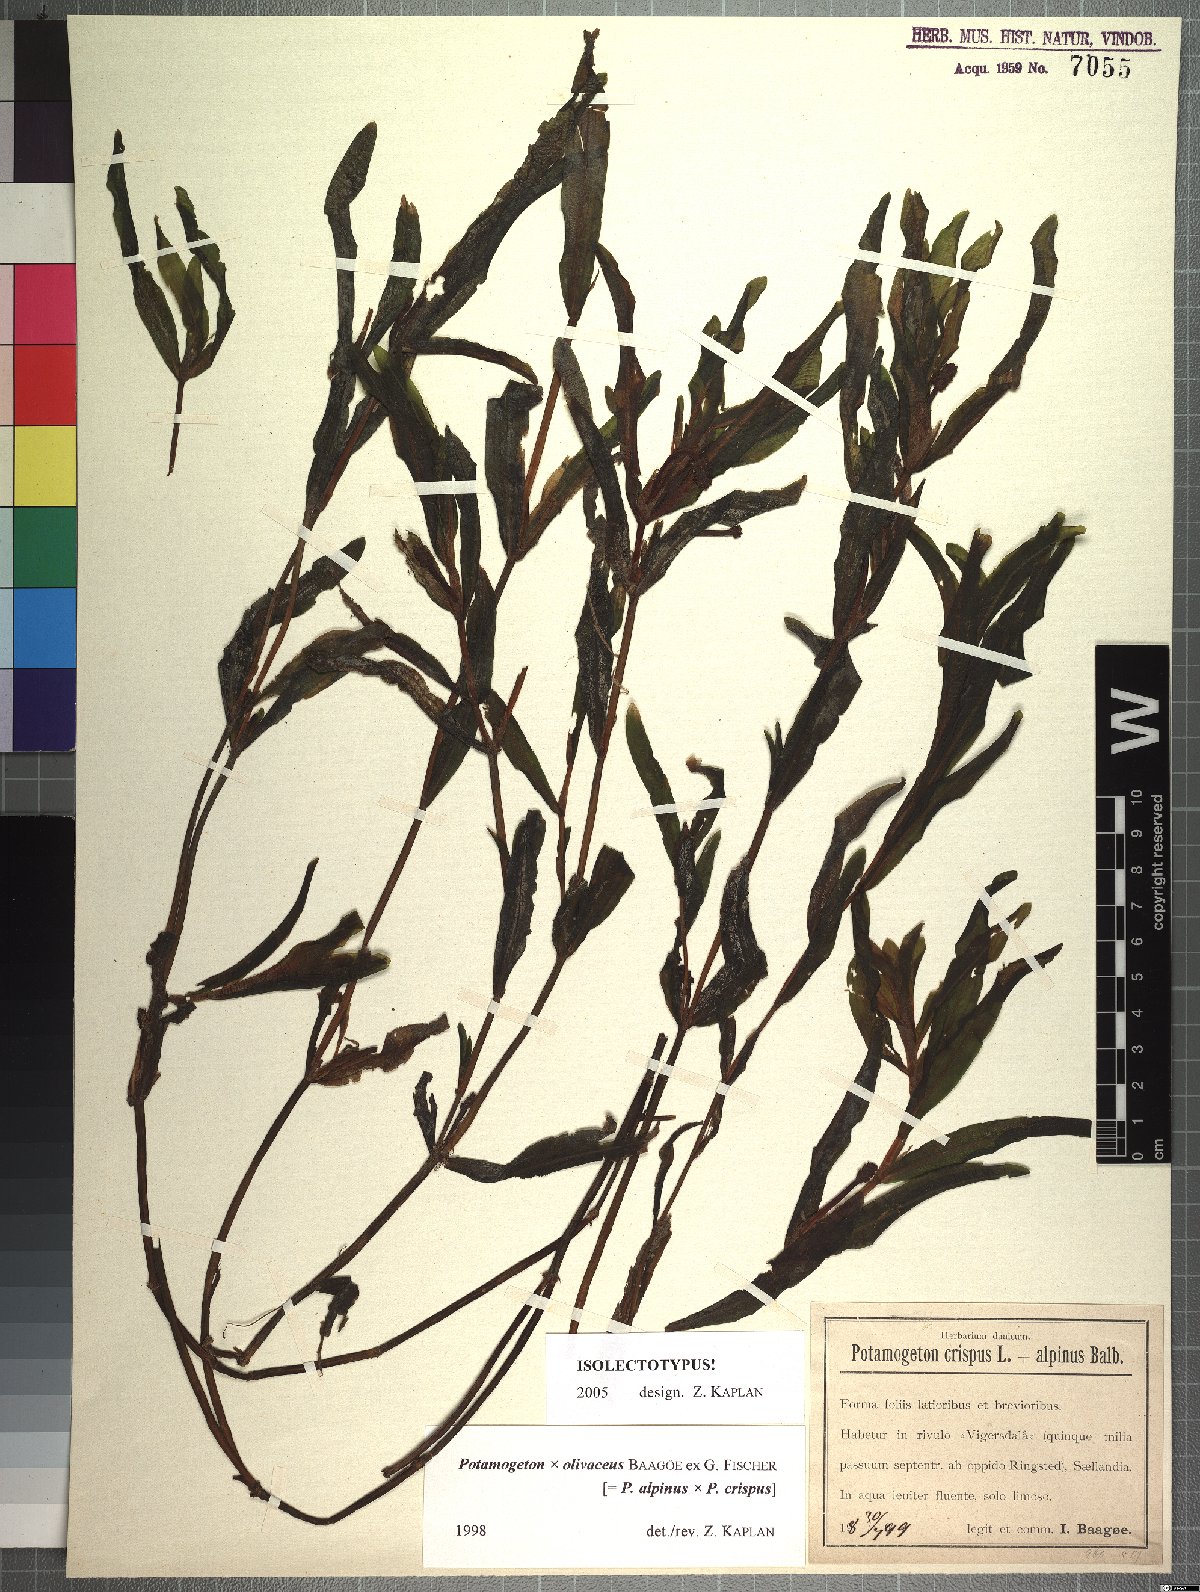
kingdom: Plantae
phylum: Tracheophyta
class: Liliopsida
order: Alismatales
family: Potamogetonaceae
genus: Potamogeton
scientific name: Potamogeton olivaceus
